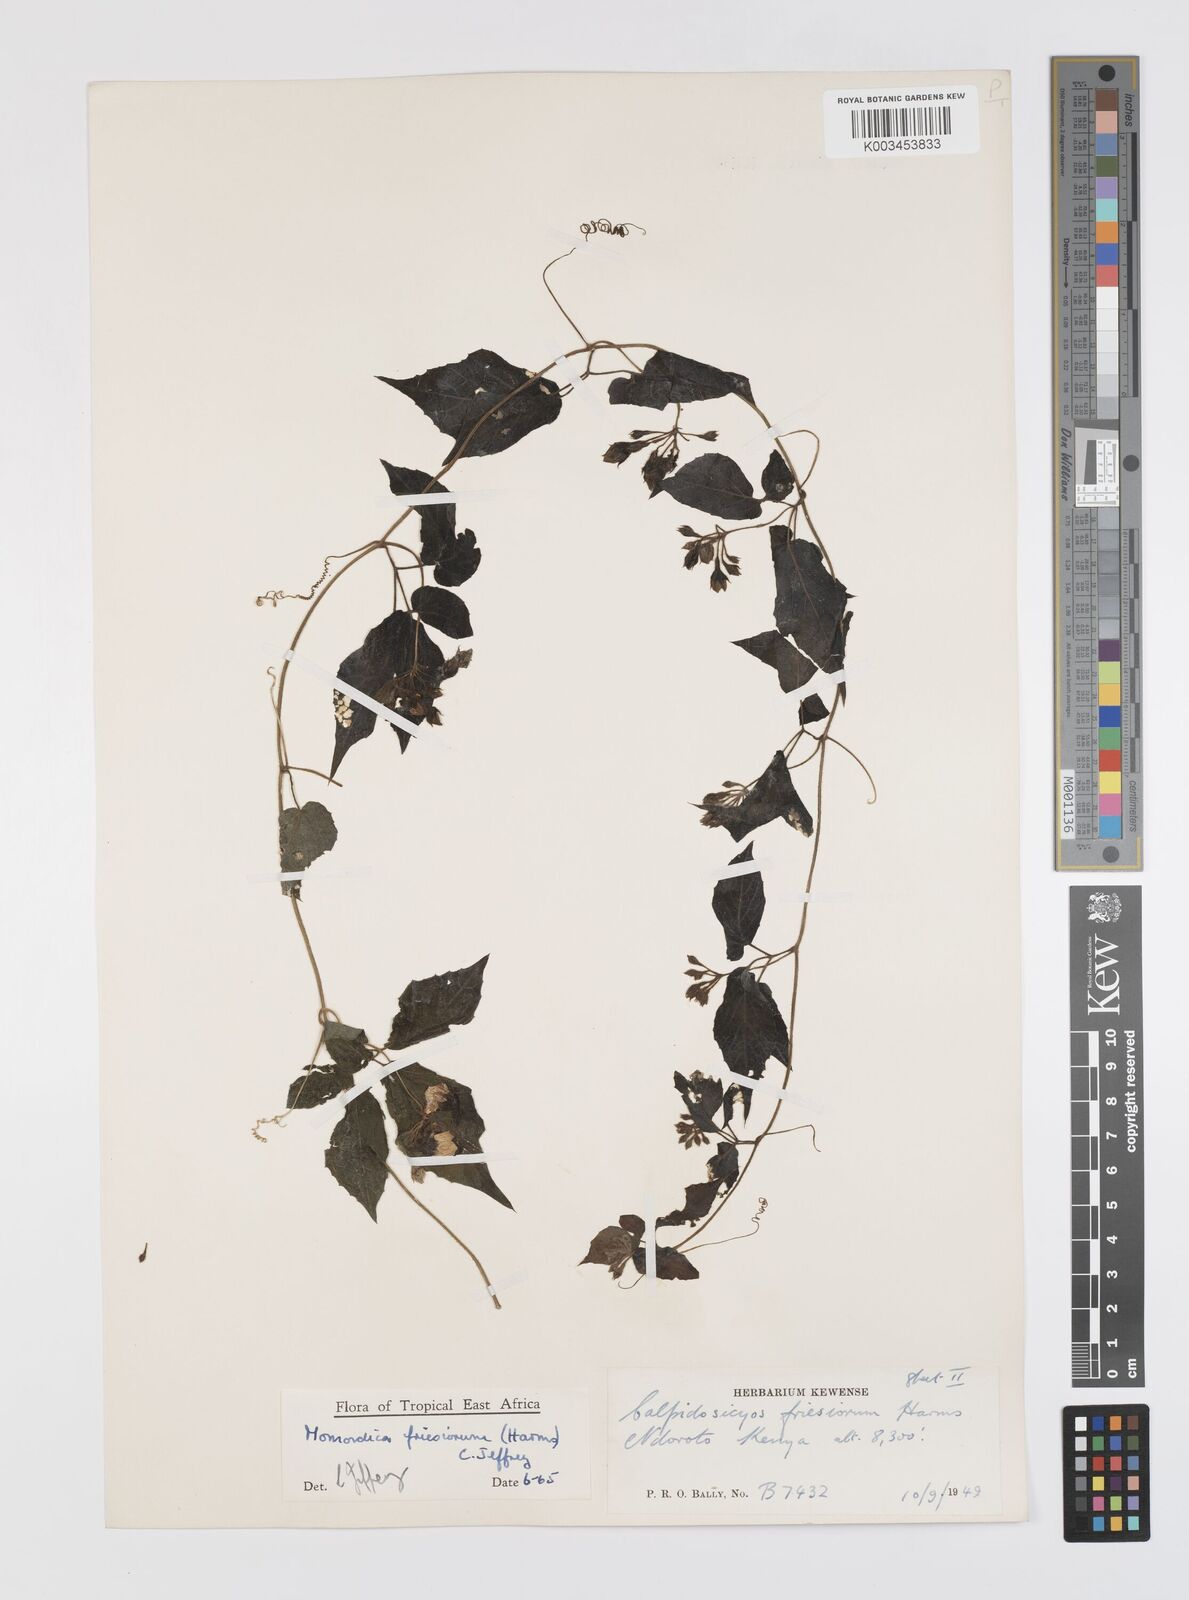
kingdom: Plantae
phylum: Tracheophyta
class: Magnoliopsida
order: Cucurbitales
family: Cucurbitaceae
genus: Momordica
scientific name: Momordica friesiorum
